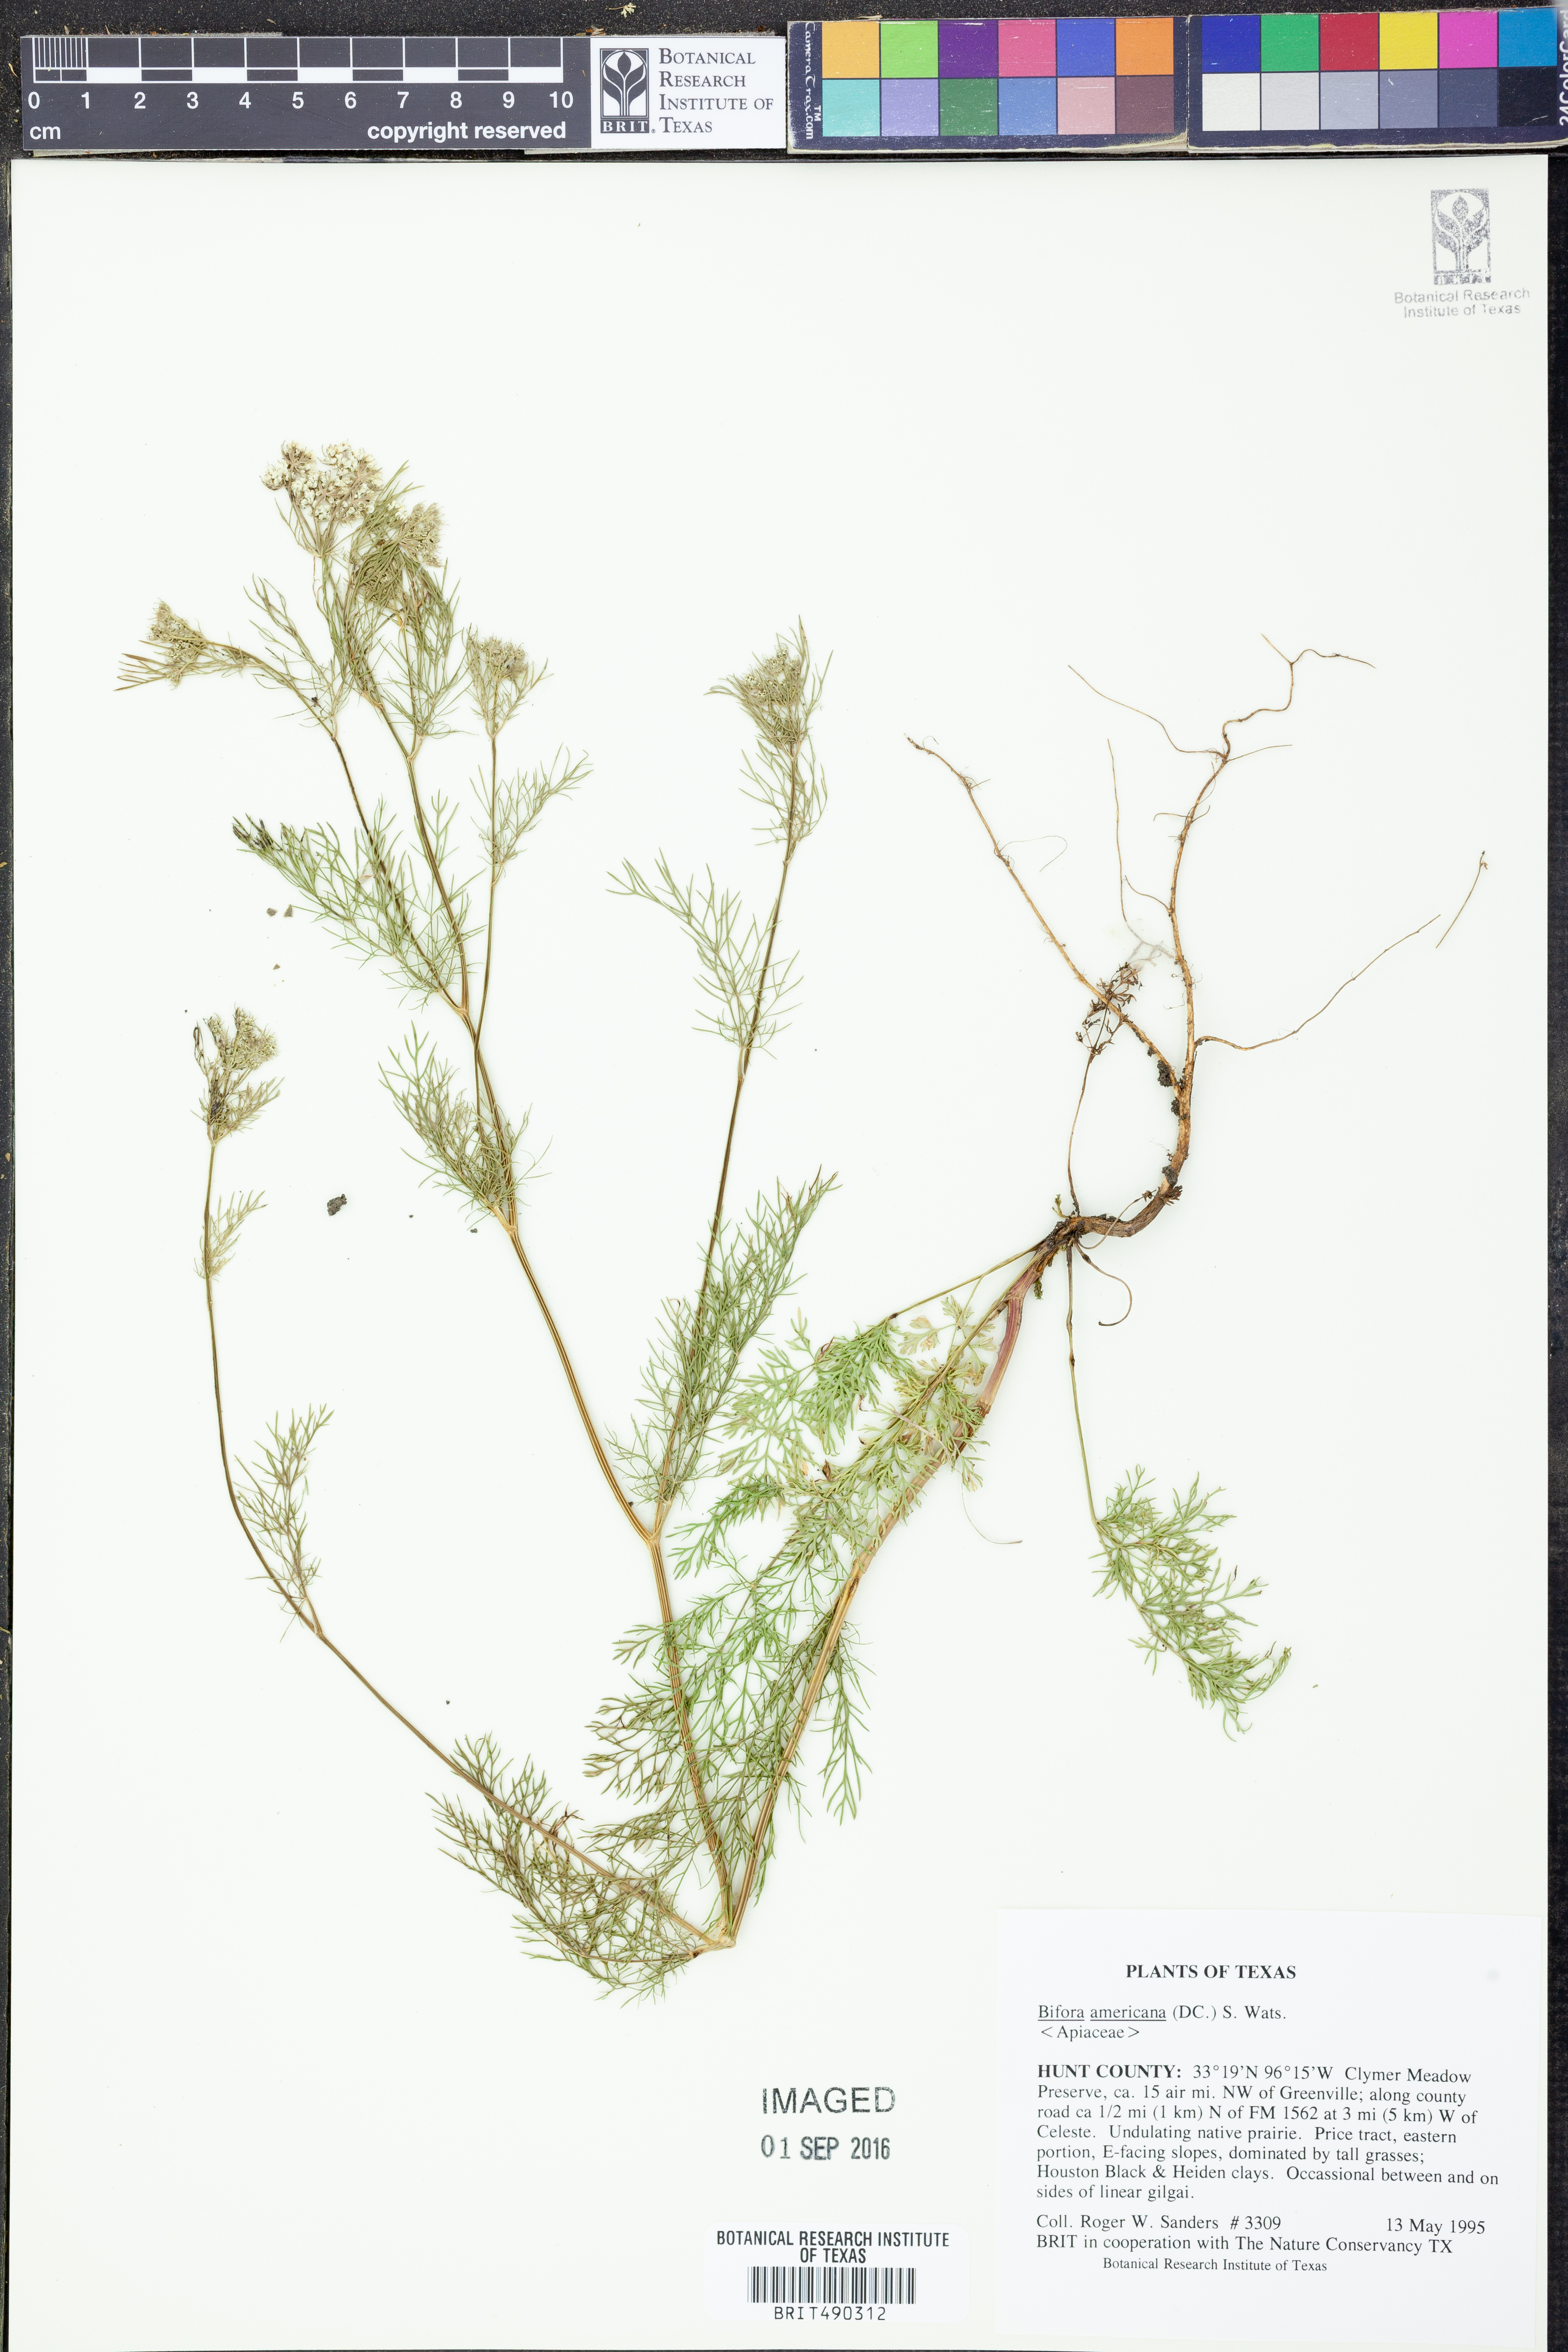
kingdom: Plantae
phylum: Tracheophyta
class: Magnoliopsida
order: Apiales
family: Apiaceae
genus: Atrema
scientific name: Atrema americanum
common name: Prairie-bishop
